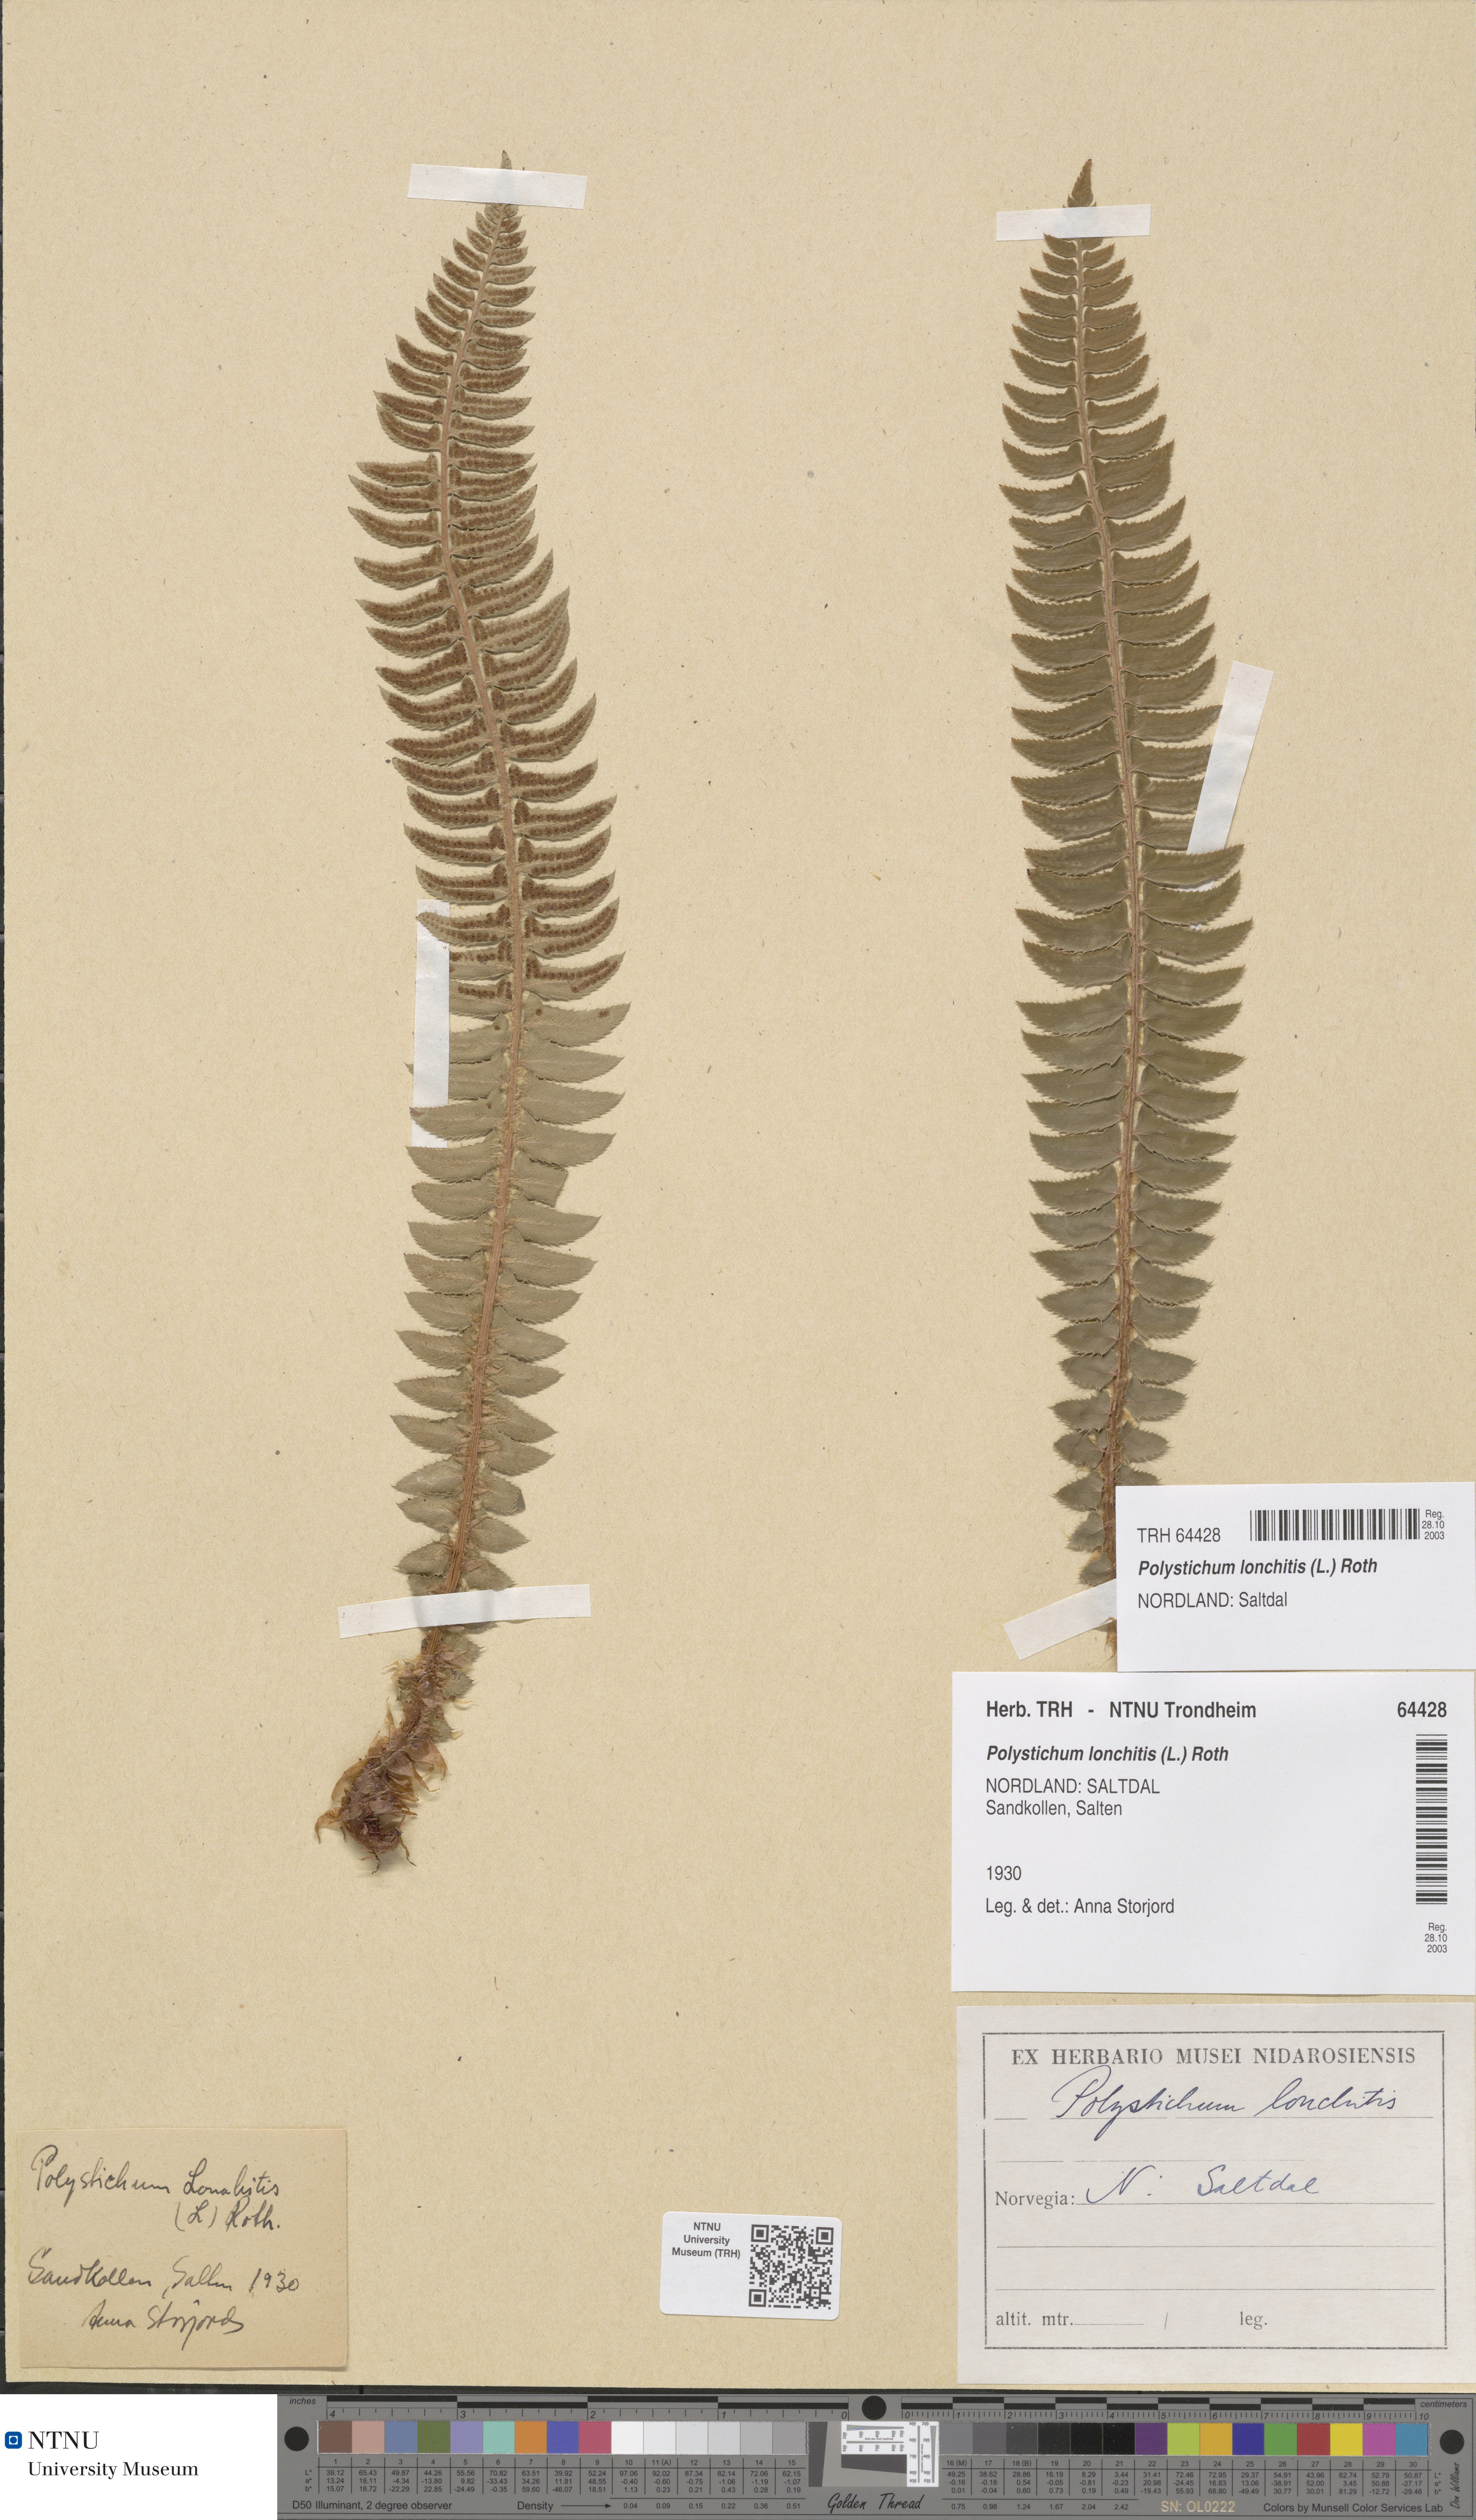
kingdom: Plantae
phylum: Tracheophyta
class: Polypodiopsida
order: Polypodiales
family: Dryopteridaceae
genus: Polystichum
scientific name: Polystichum lonchitis
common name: Holly fern
